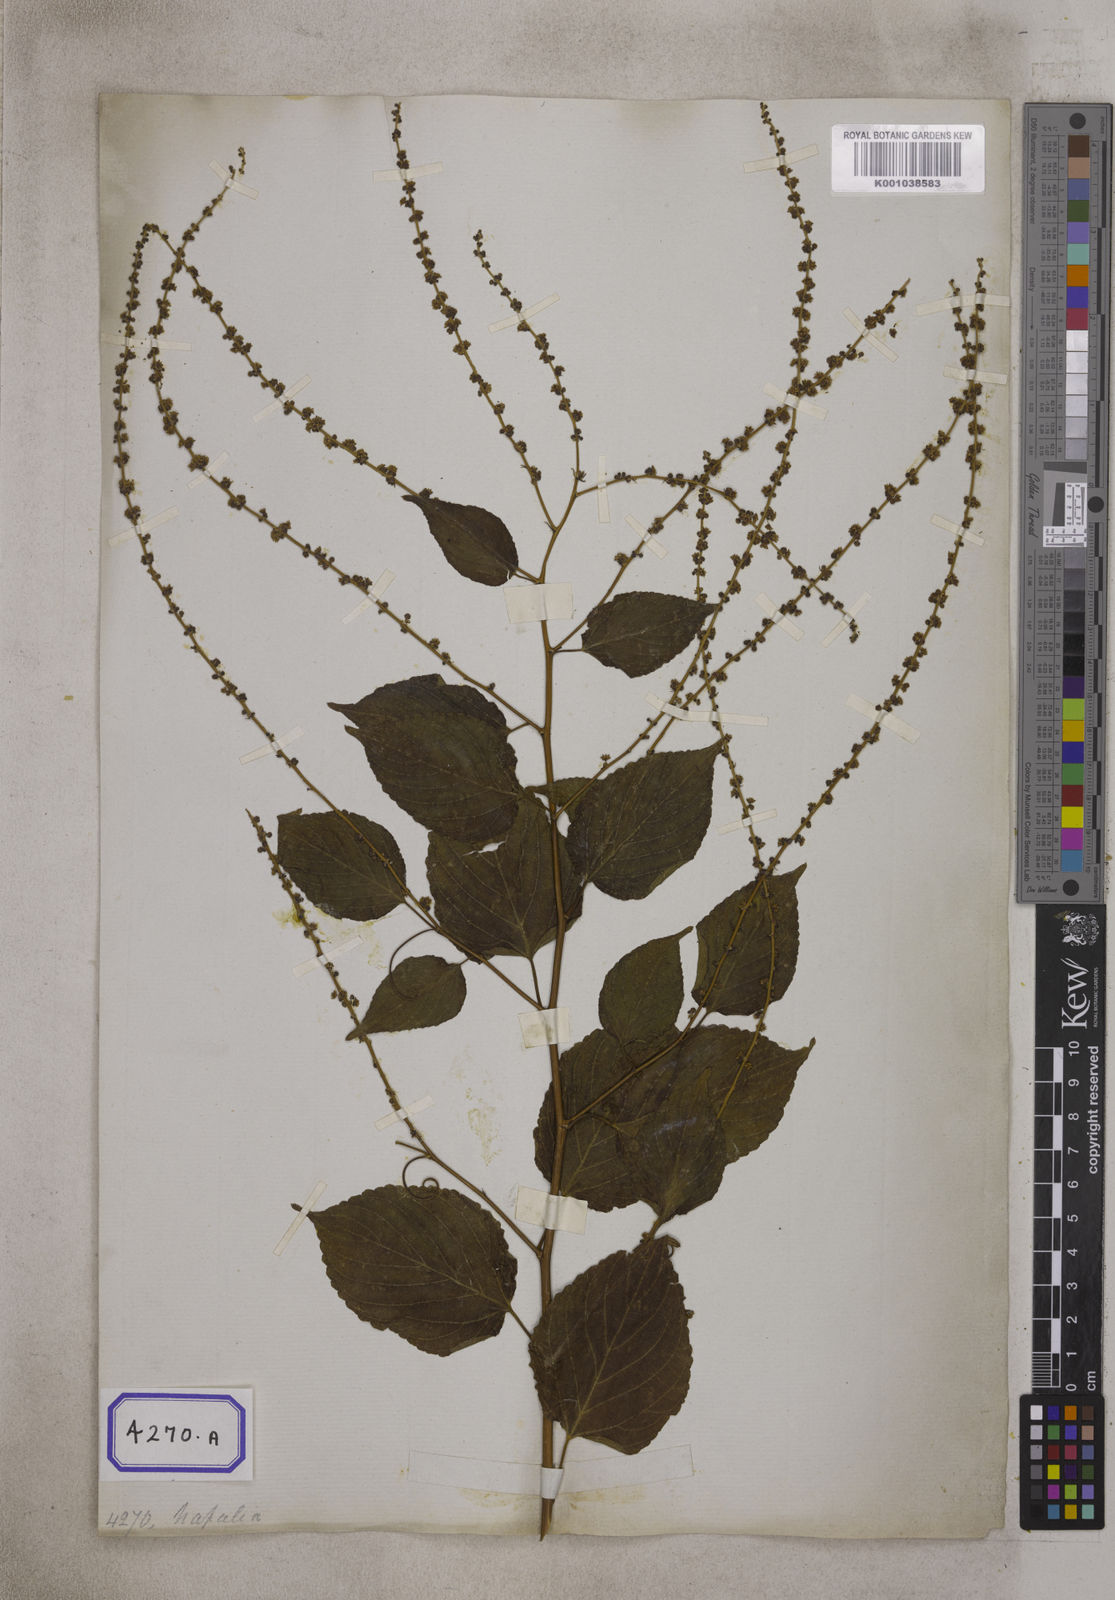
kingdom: Plantae
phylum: Tracheophyta
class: Magnoliopsida
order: Rosales
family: Rhamnaceae
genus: Gouania
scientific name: Gouania leptostachya
